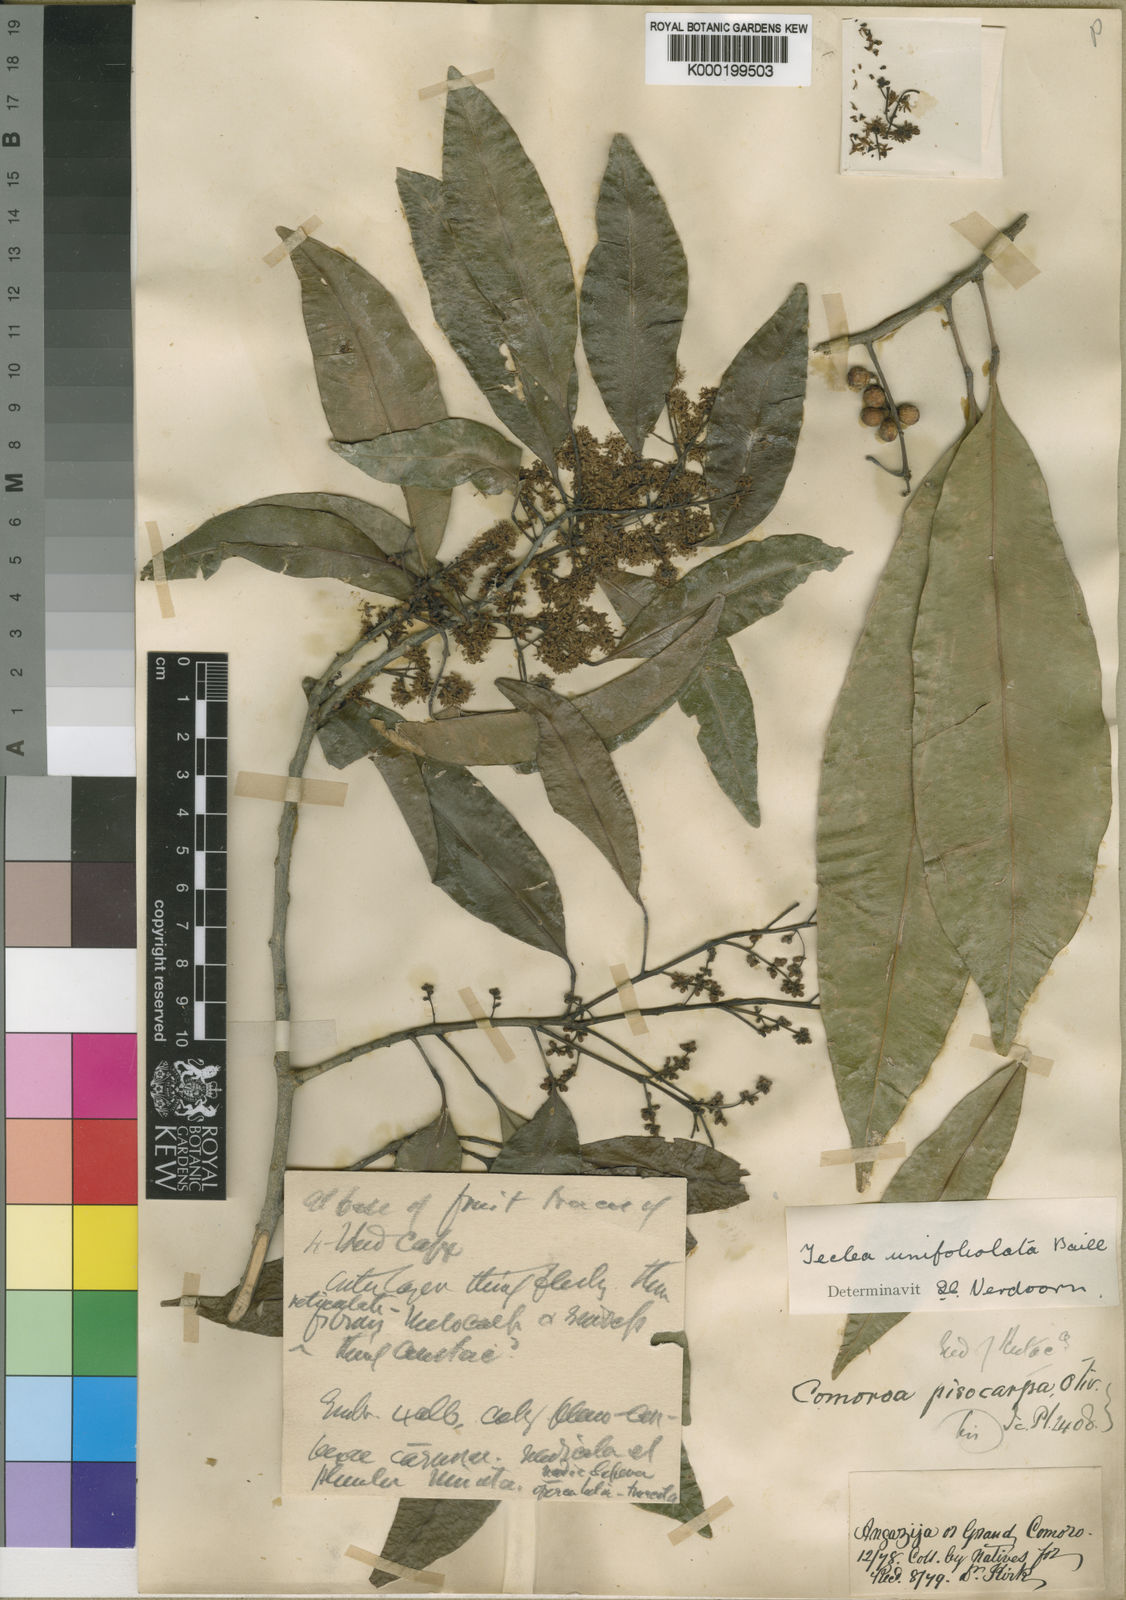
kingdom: Plantae
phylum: Tracheophyta
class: Magnoliopsida
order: Sapindales
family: Rutaceae
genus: Vepris
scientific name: Vepris unifoliolata
